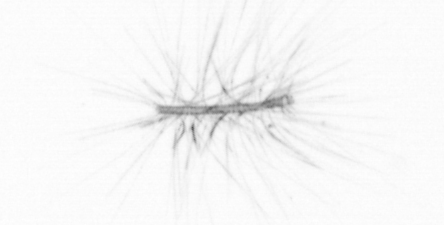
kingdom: Chromista
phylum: Ochrophyta
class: Bacillariophyceae
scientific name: Bacillariophyceae
